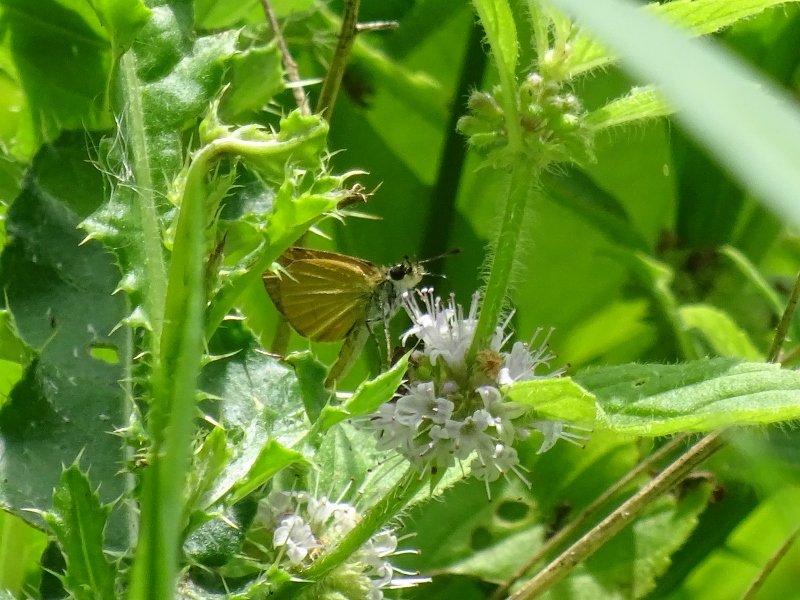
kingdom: Animalia
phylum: Arthropoda
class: Insecta
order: Lepidoptera
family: Hesperiidae
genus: Ancyloxypha
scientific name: Ancyloxypha numitor
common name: Least Skipper
